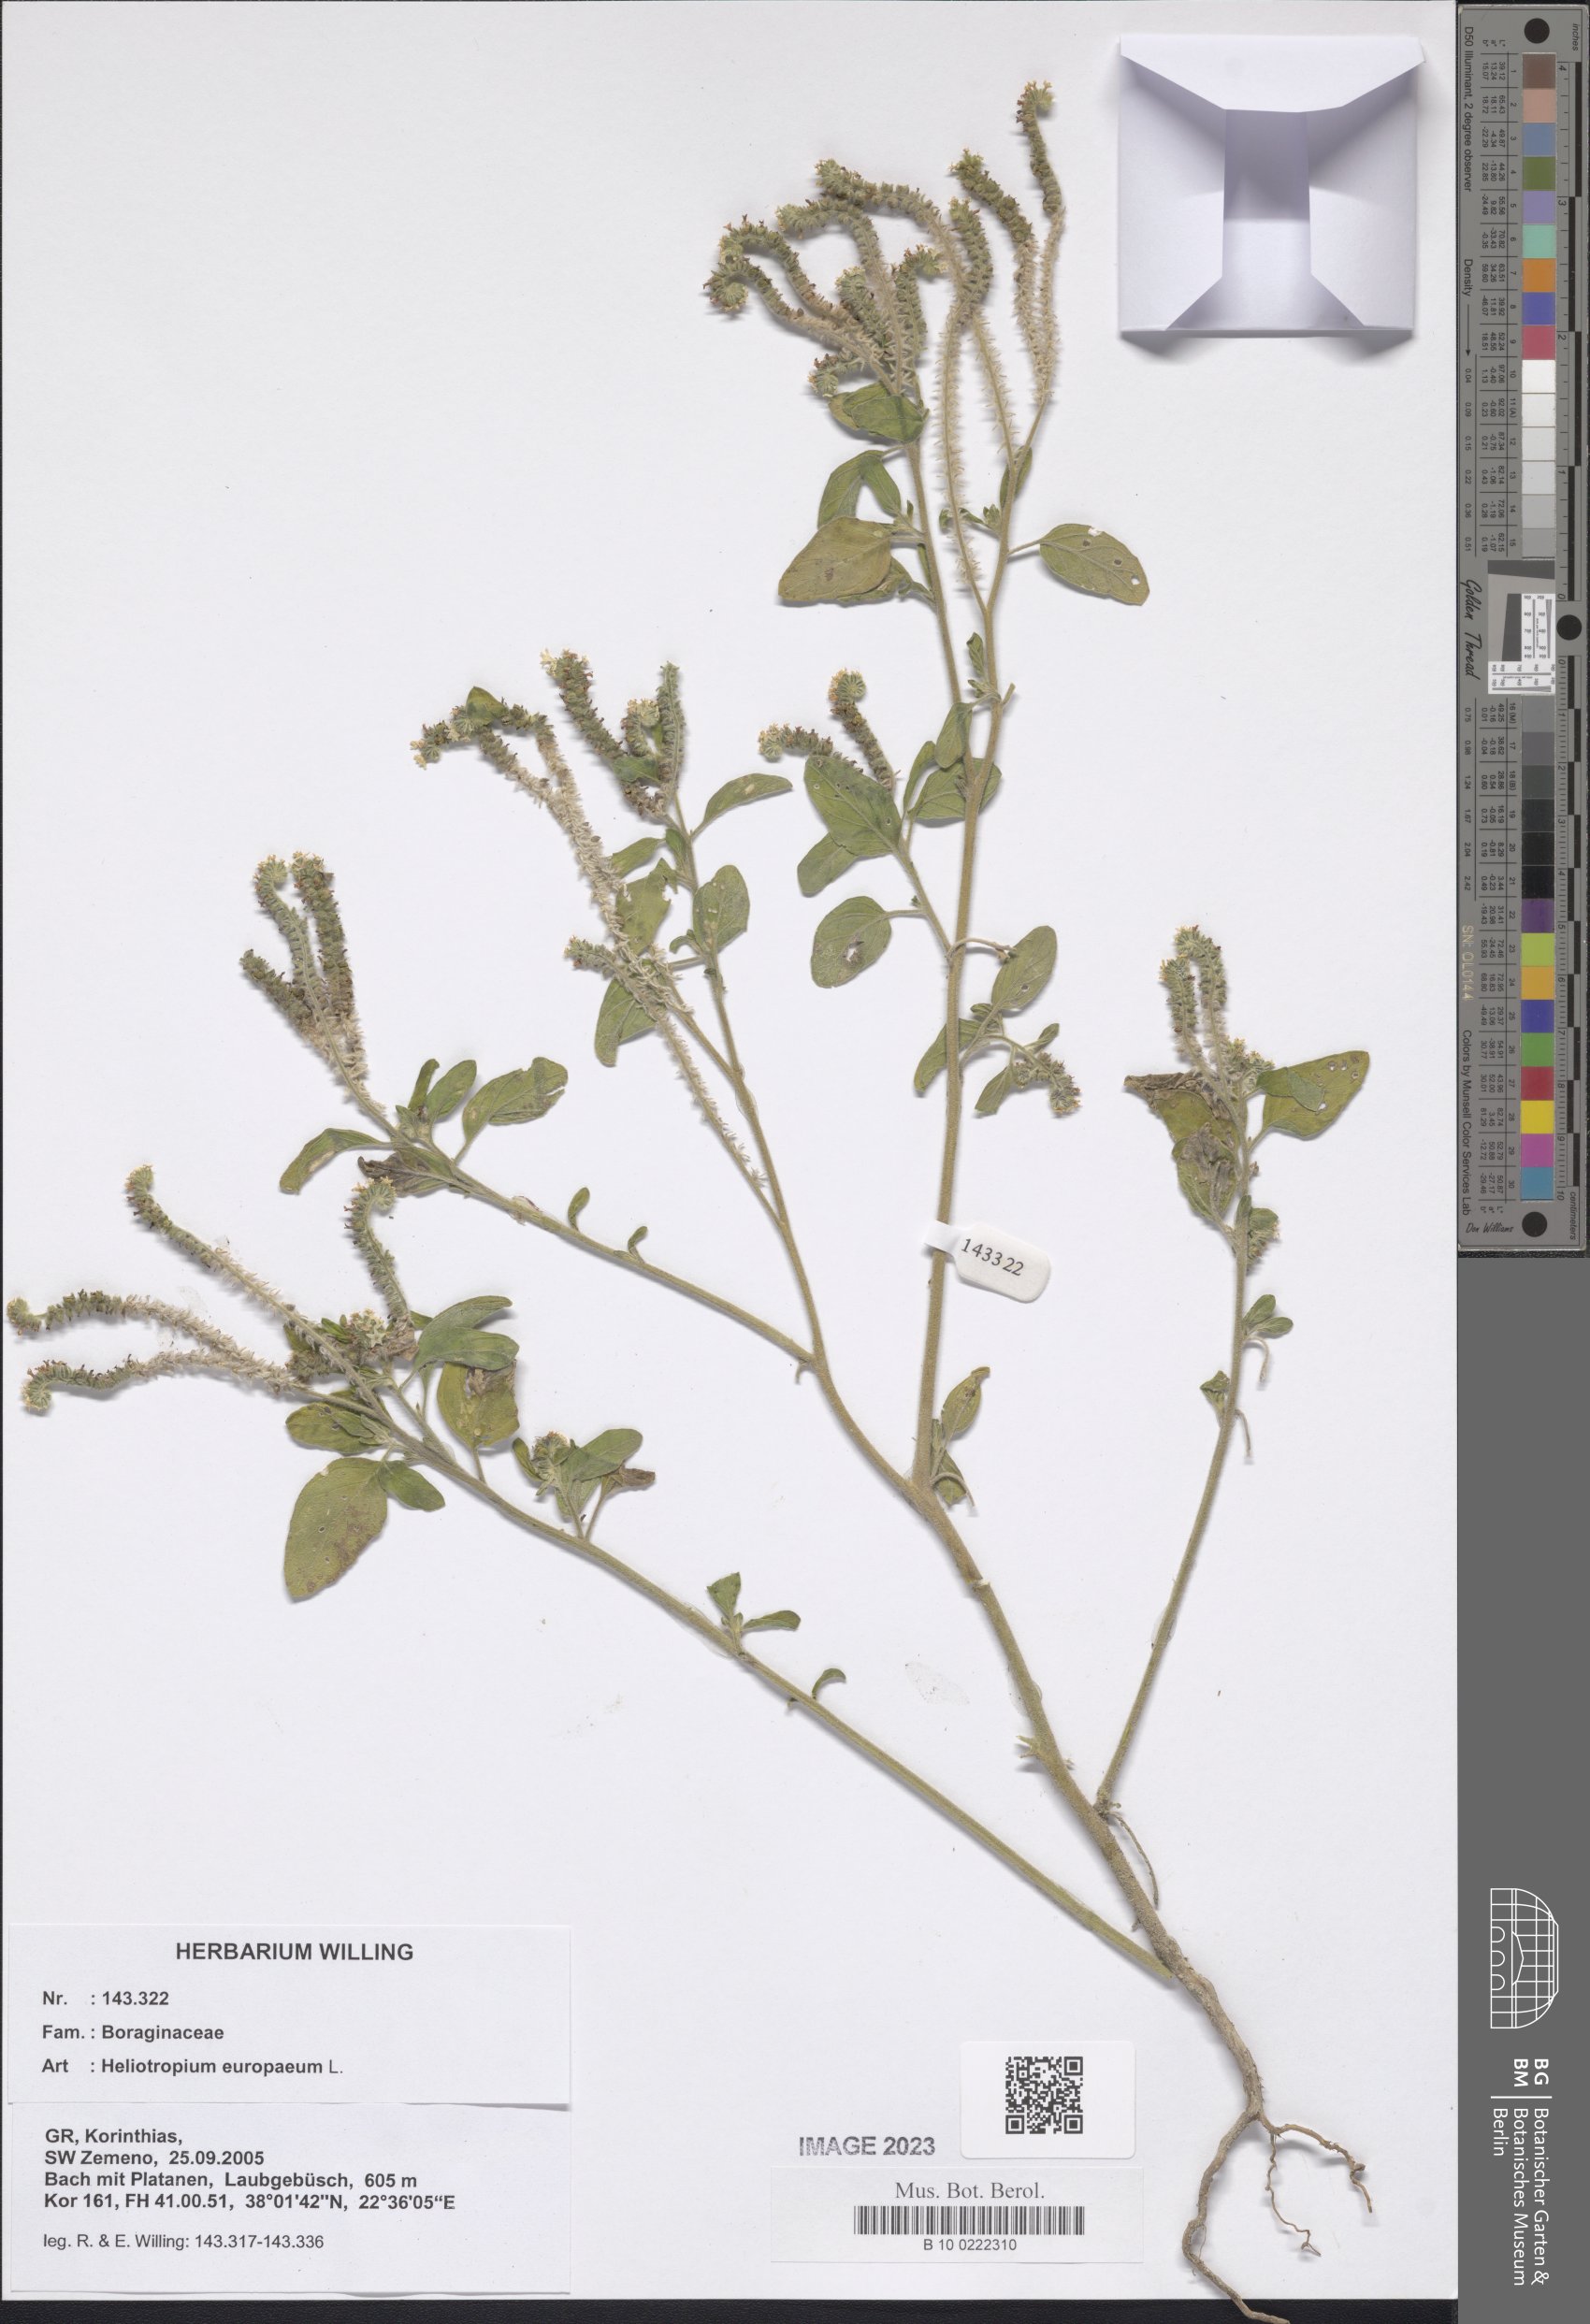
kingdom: Plantae
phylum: Tracheophyta
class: Magnoliopsida
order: Boraginales
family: Heliotropiaceae
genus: Heliotropium
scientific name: Heliotropium europaeum
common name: European heliotrope
